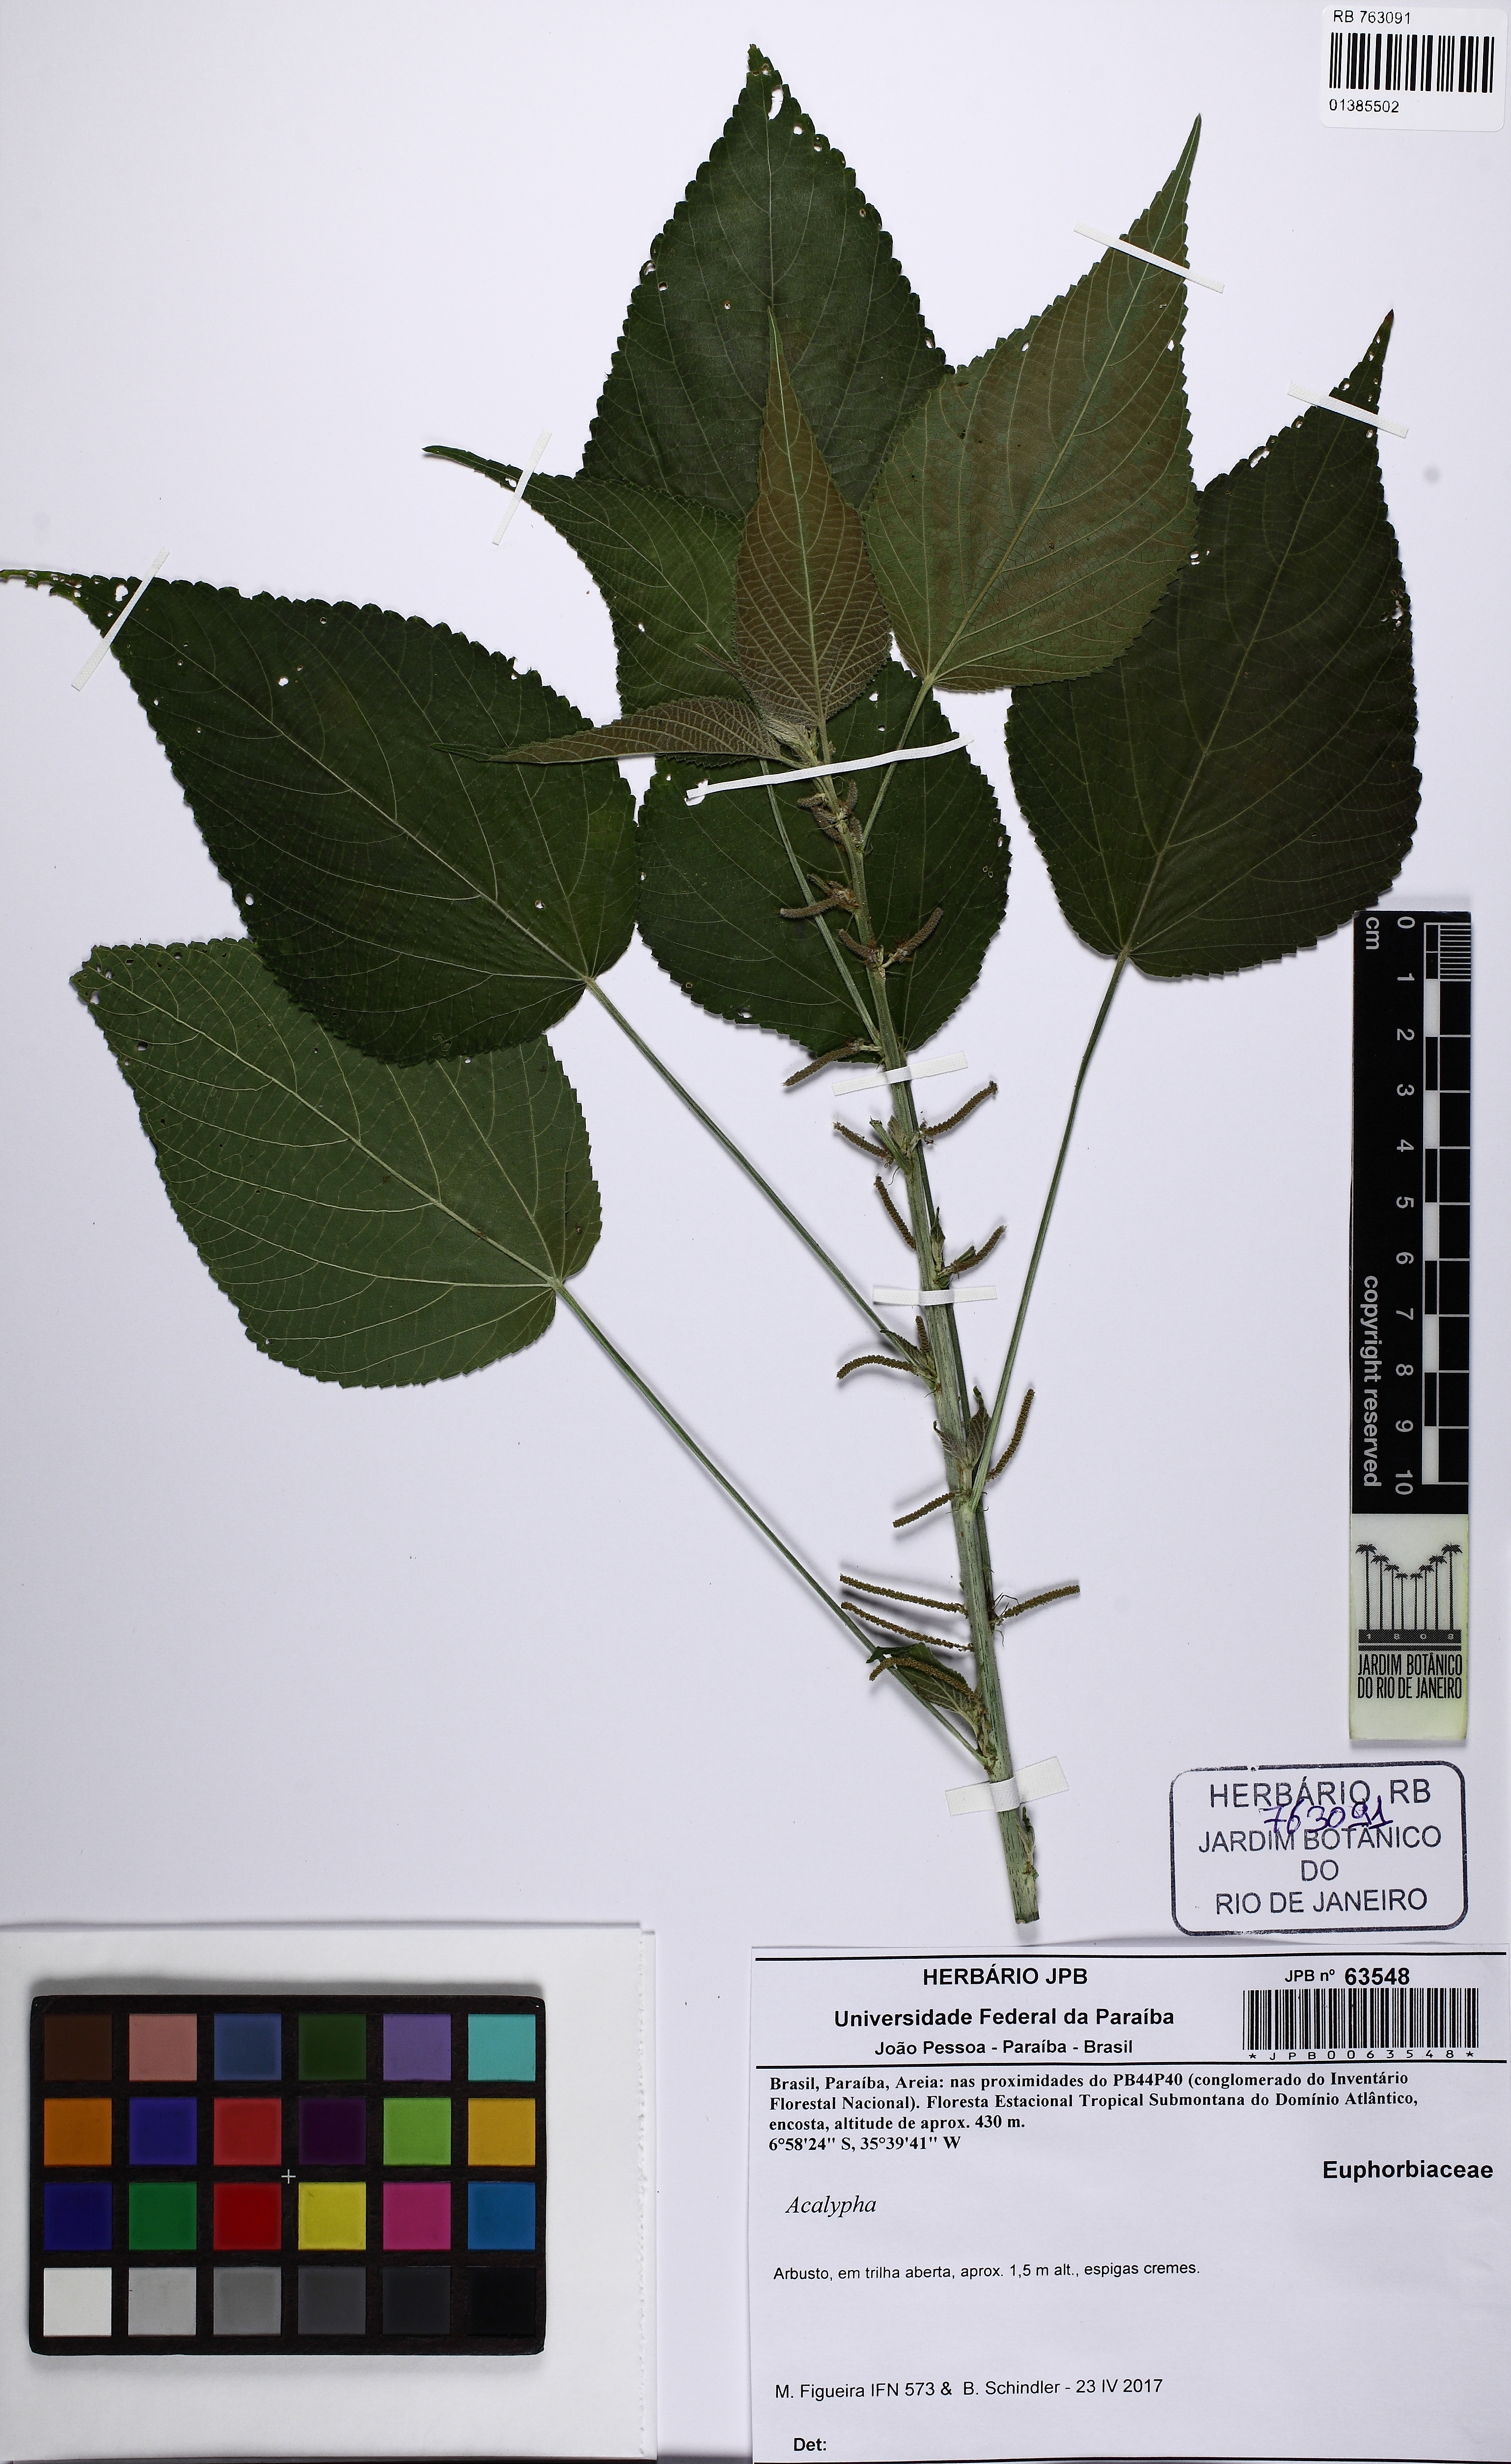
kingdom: Plantae
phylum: Tracheophyta
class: Magnoliopsida
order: Malpighiales
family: Euphorbiaceae
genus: Acalypha
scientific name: Acalypha brasiliensis
